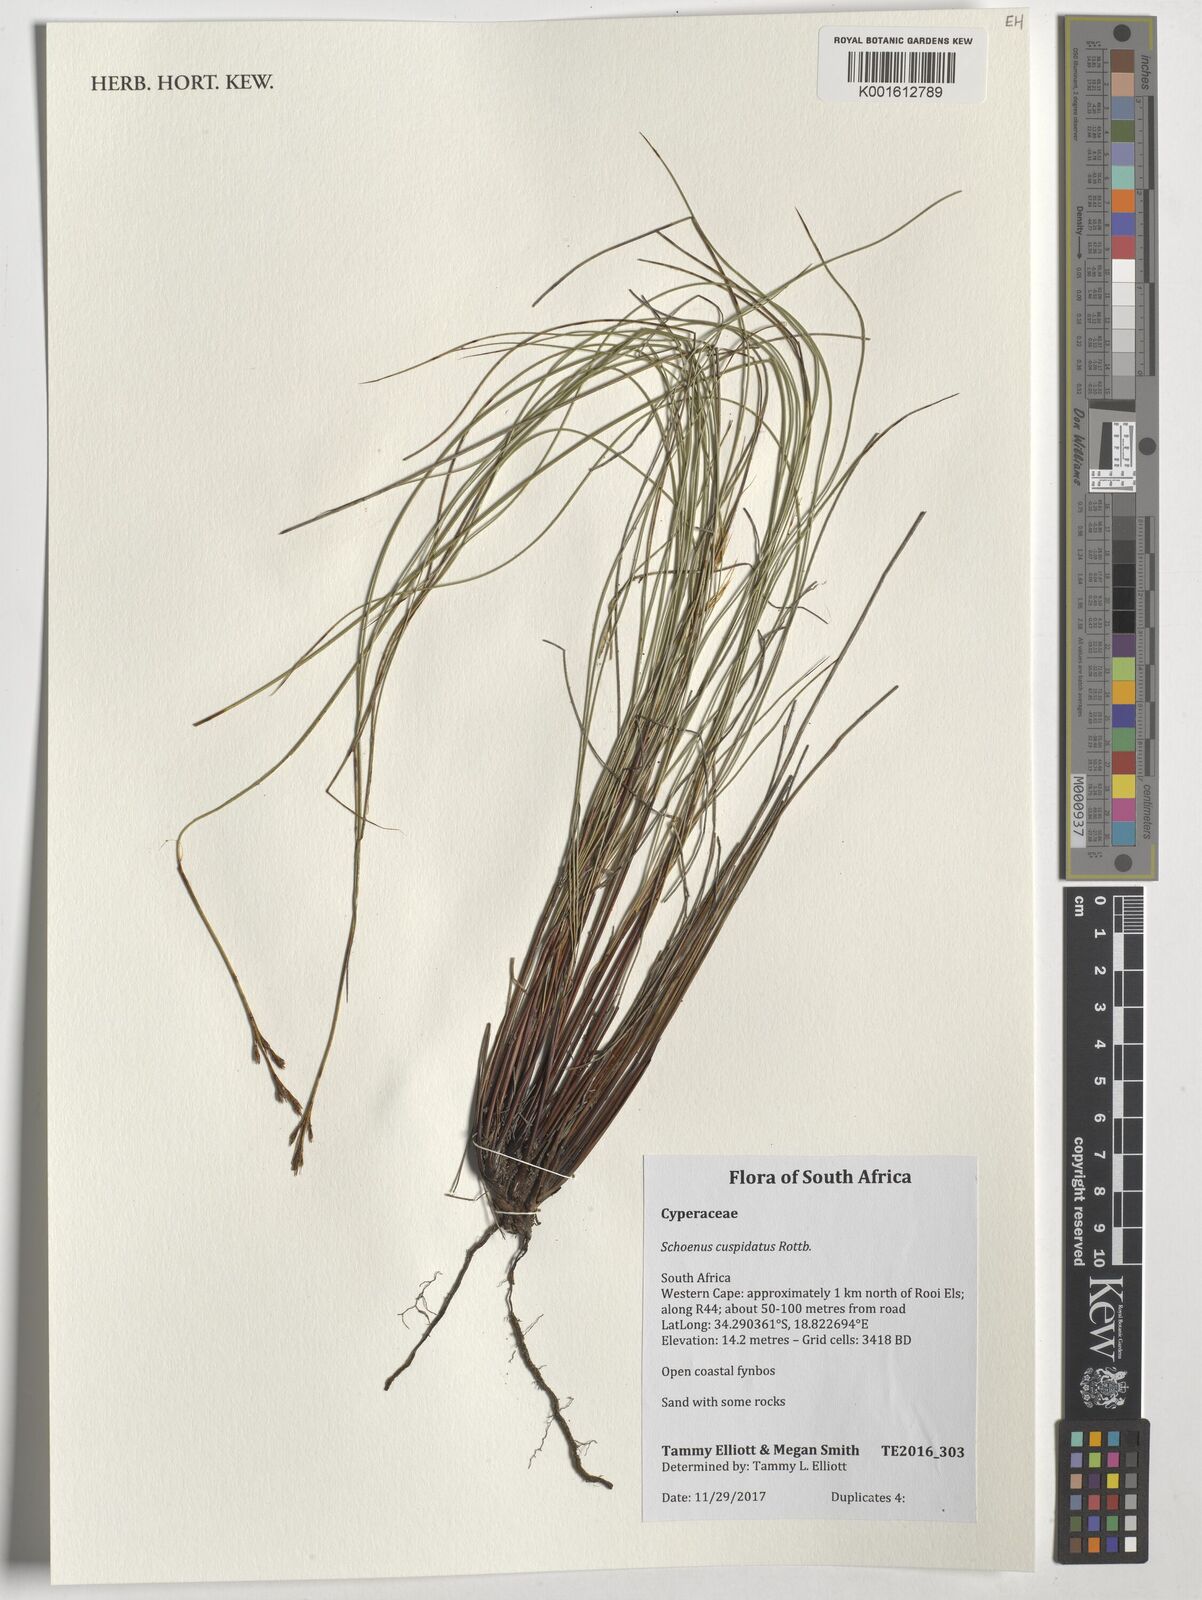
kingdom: Plantae
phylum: Tracheophyta
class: Liliopsida
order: Poales
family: Cyperaceae
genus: Schoenus
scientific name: Schoenus cuspidatus
